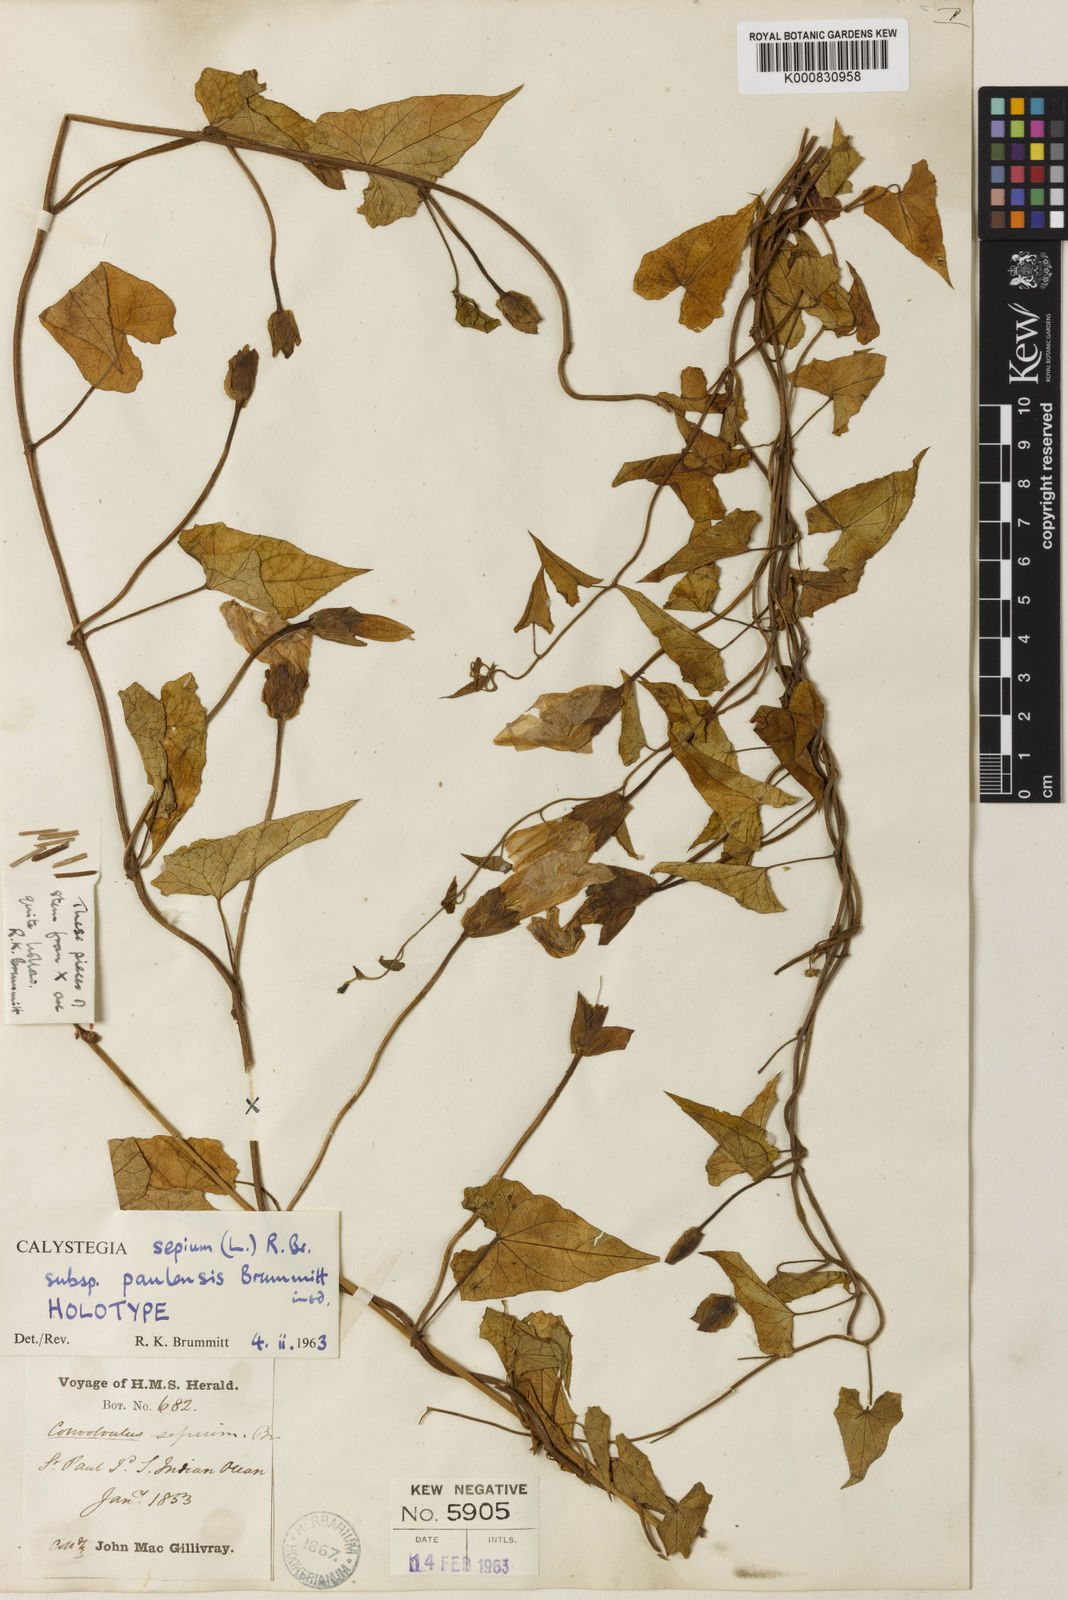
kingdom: Plantae
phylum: Tracheophyta
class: Magnoliopsida
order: Solanales
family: Convolvulaceae
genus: Calystegia
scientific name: Calystegia sepium
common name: Hedge bindweed
